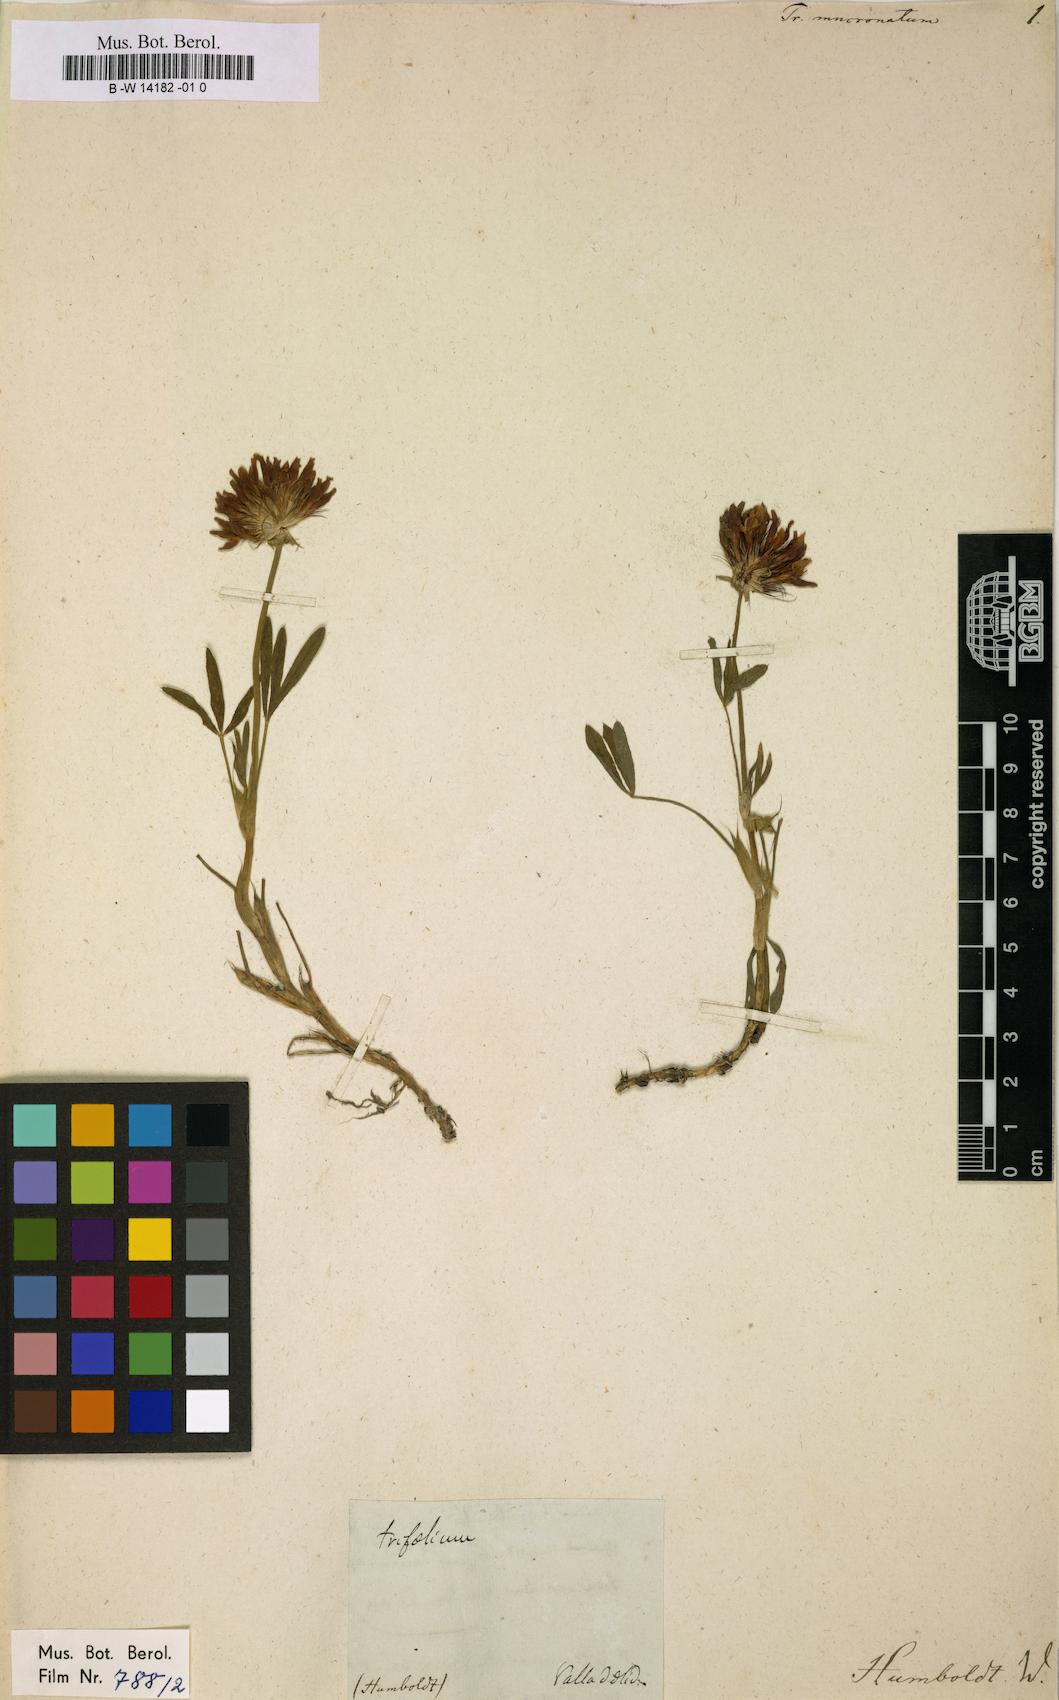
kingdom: Plantae
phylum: Tracheophyta
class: Magnoliopsida
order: Fabales
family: Fabaceae
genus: Trifolium
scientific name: Trifolium wormskioldii
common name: Springbank clover
